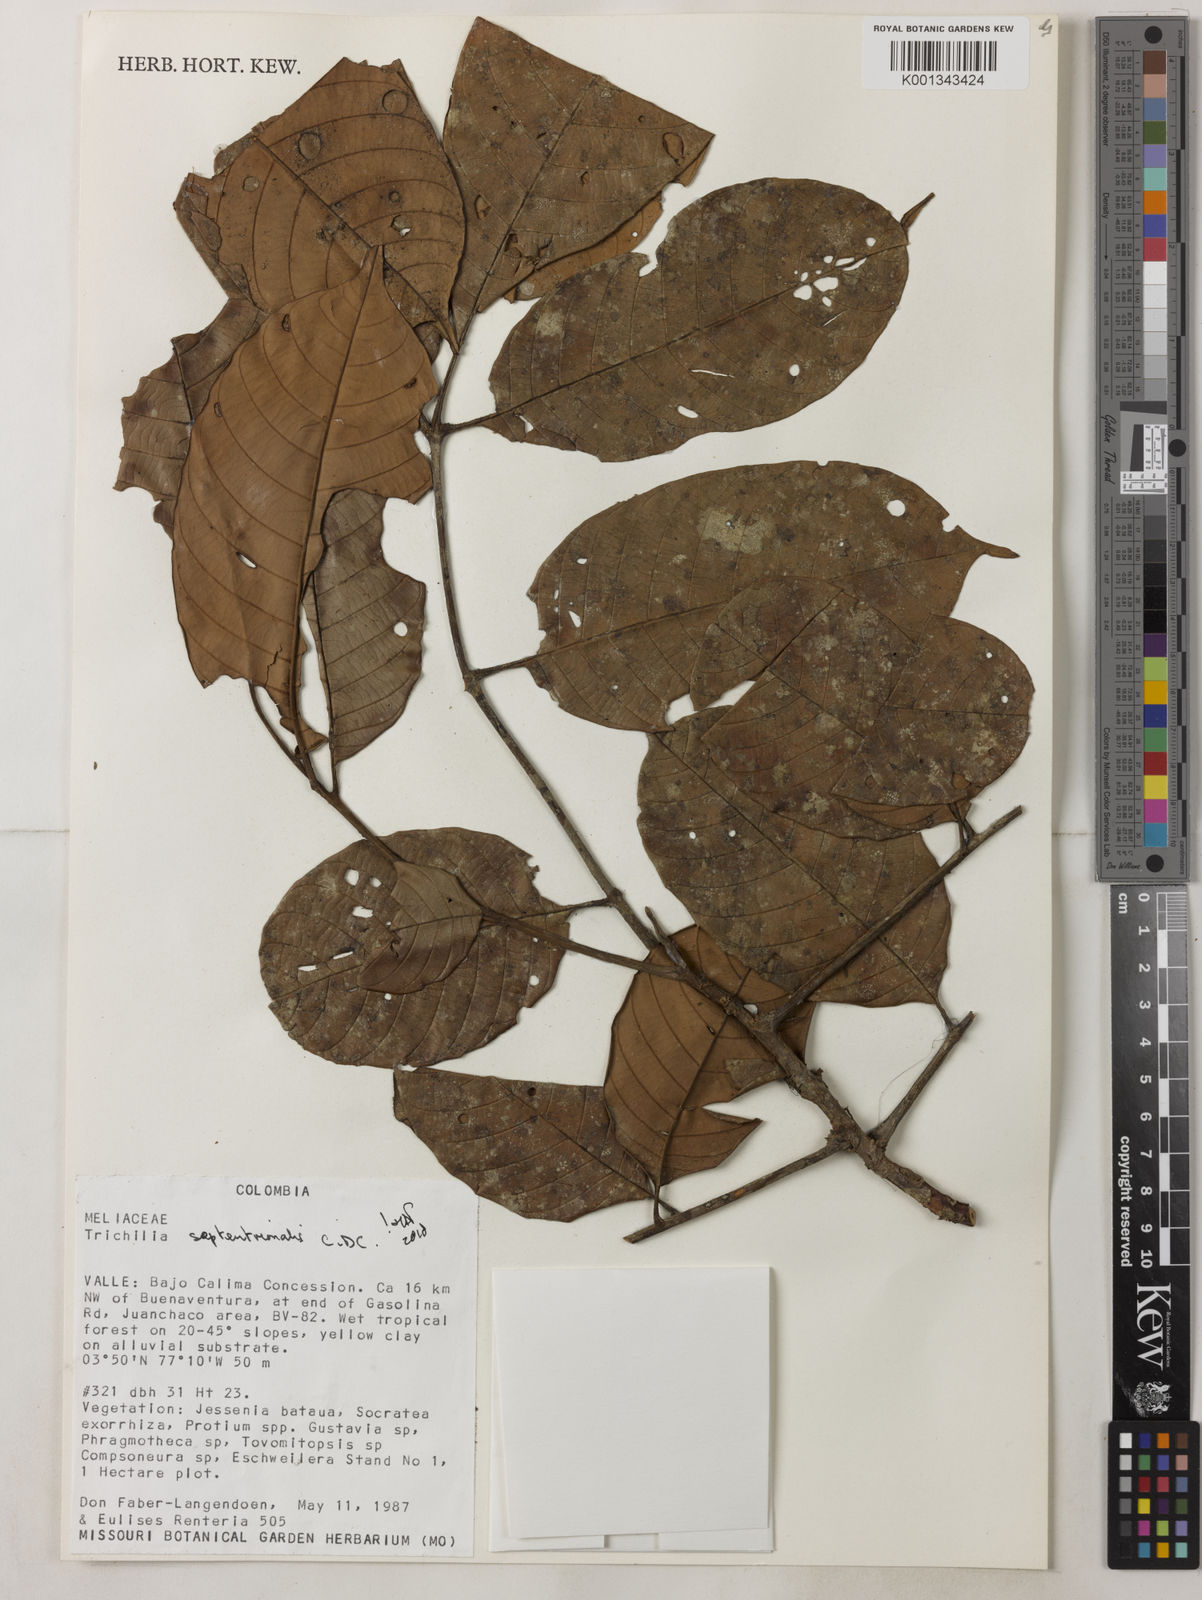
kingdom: Plantae
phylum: Tracheophyta
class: Magnoliopsida
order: Sapindales
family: Meliaceae
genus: Trichilia
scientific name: Trichilia septentrionalis
